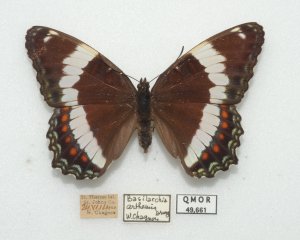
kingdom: Animalia
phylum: Arthropoda
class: Insecta
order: Lepidoptera
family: Nymphalidae
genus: Limenitis
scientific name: Limenitis arthemis
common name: Red-spotted Admiral
